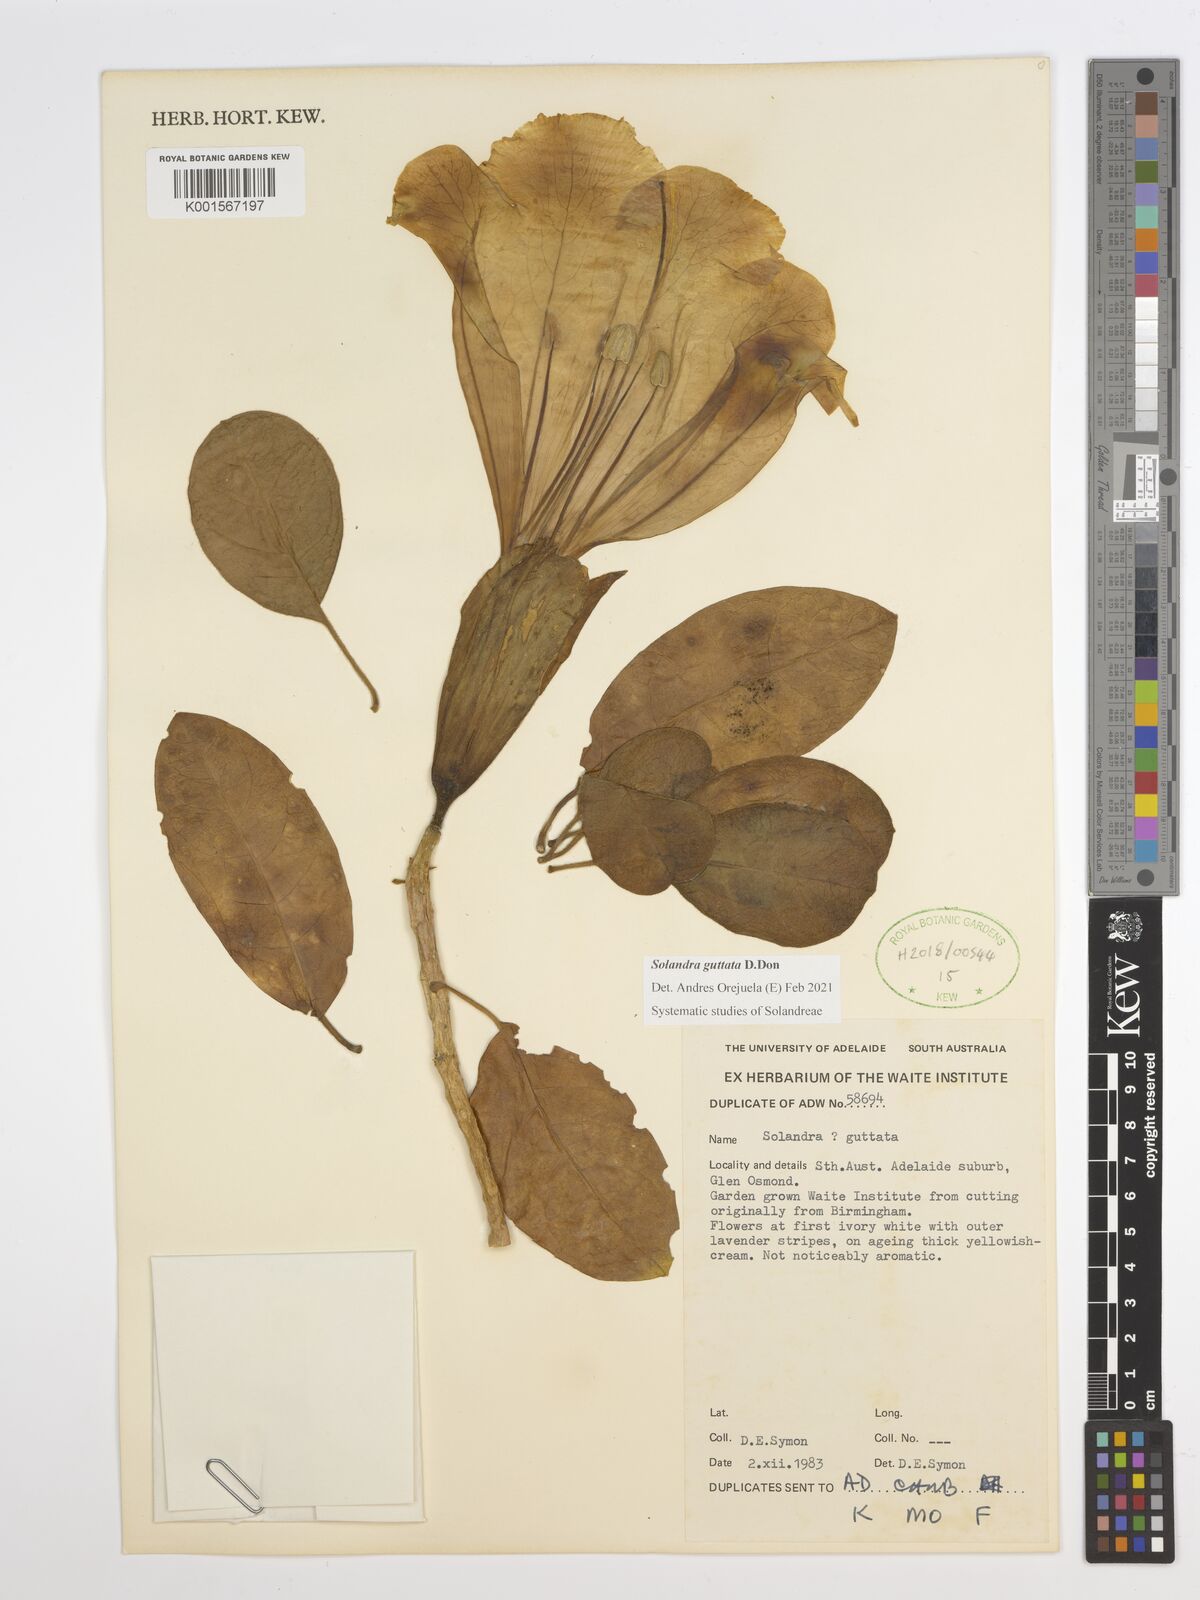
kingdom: Plantae
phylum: Tracheophyta
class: Magnoliopsida
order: Solanales
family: Solanaceae
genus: Solandra
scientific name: Solandra guttata
